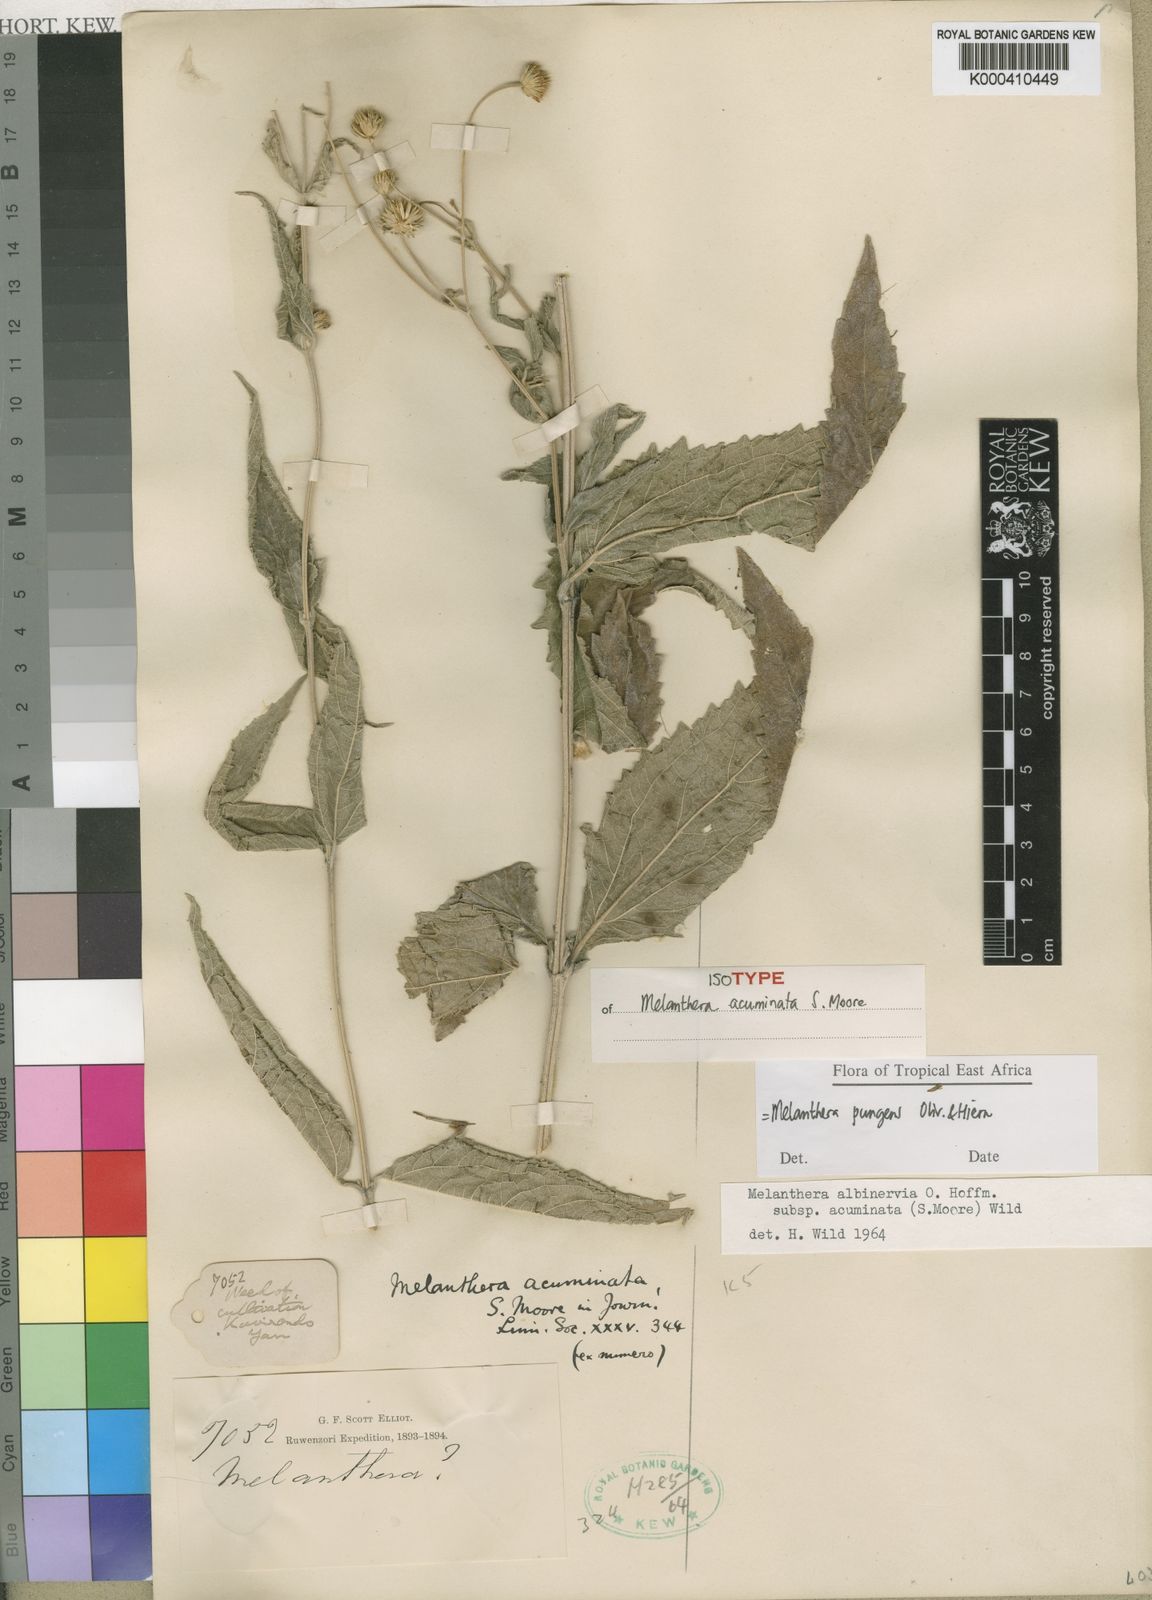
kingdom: Plantae
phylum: Tracheophyta
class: Magnoliopsida
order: Asterales
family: Asteraceae
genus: Lipotriche
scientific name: Lipotriche pungens
